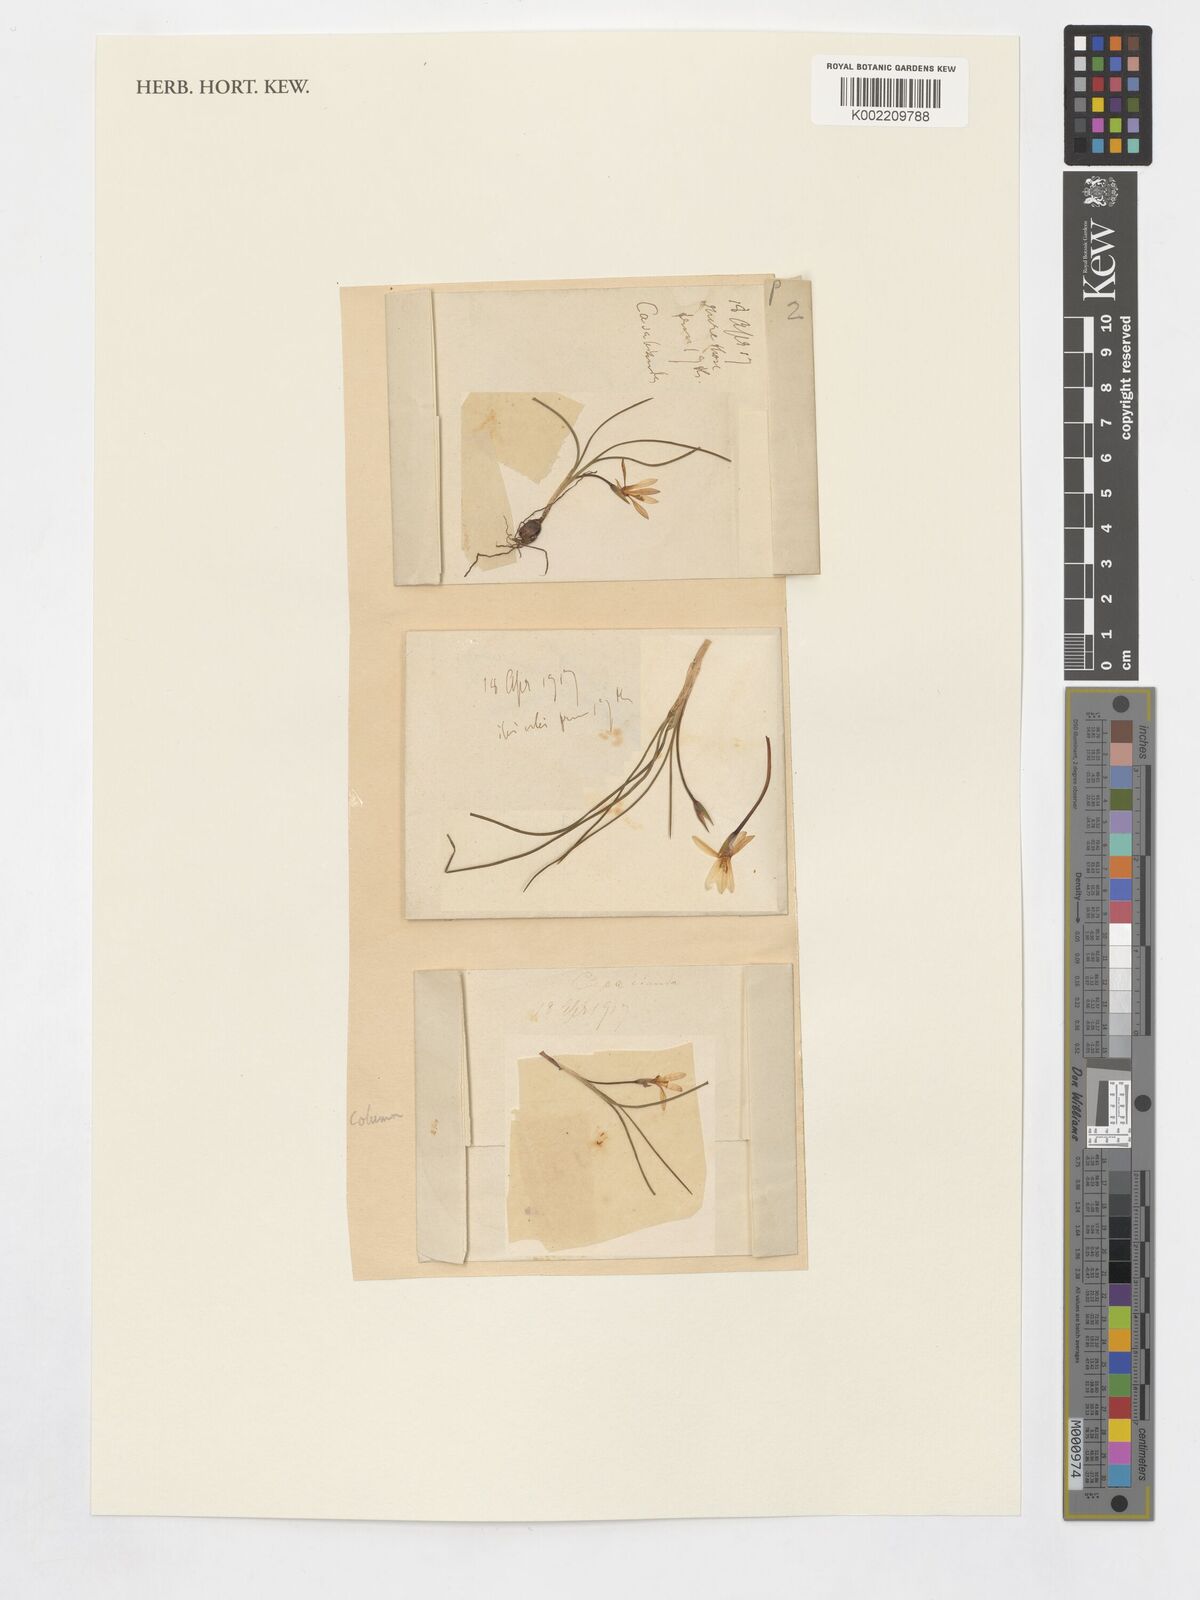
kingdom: Plantae
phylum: Tracheophyta
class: Liliopsida
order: Asparagales
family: Iridaceae
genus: Romulea
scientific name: Romulea columnae
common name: Sand-crocus
